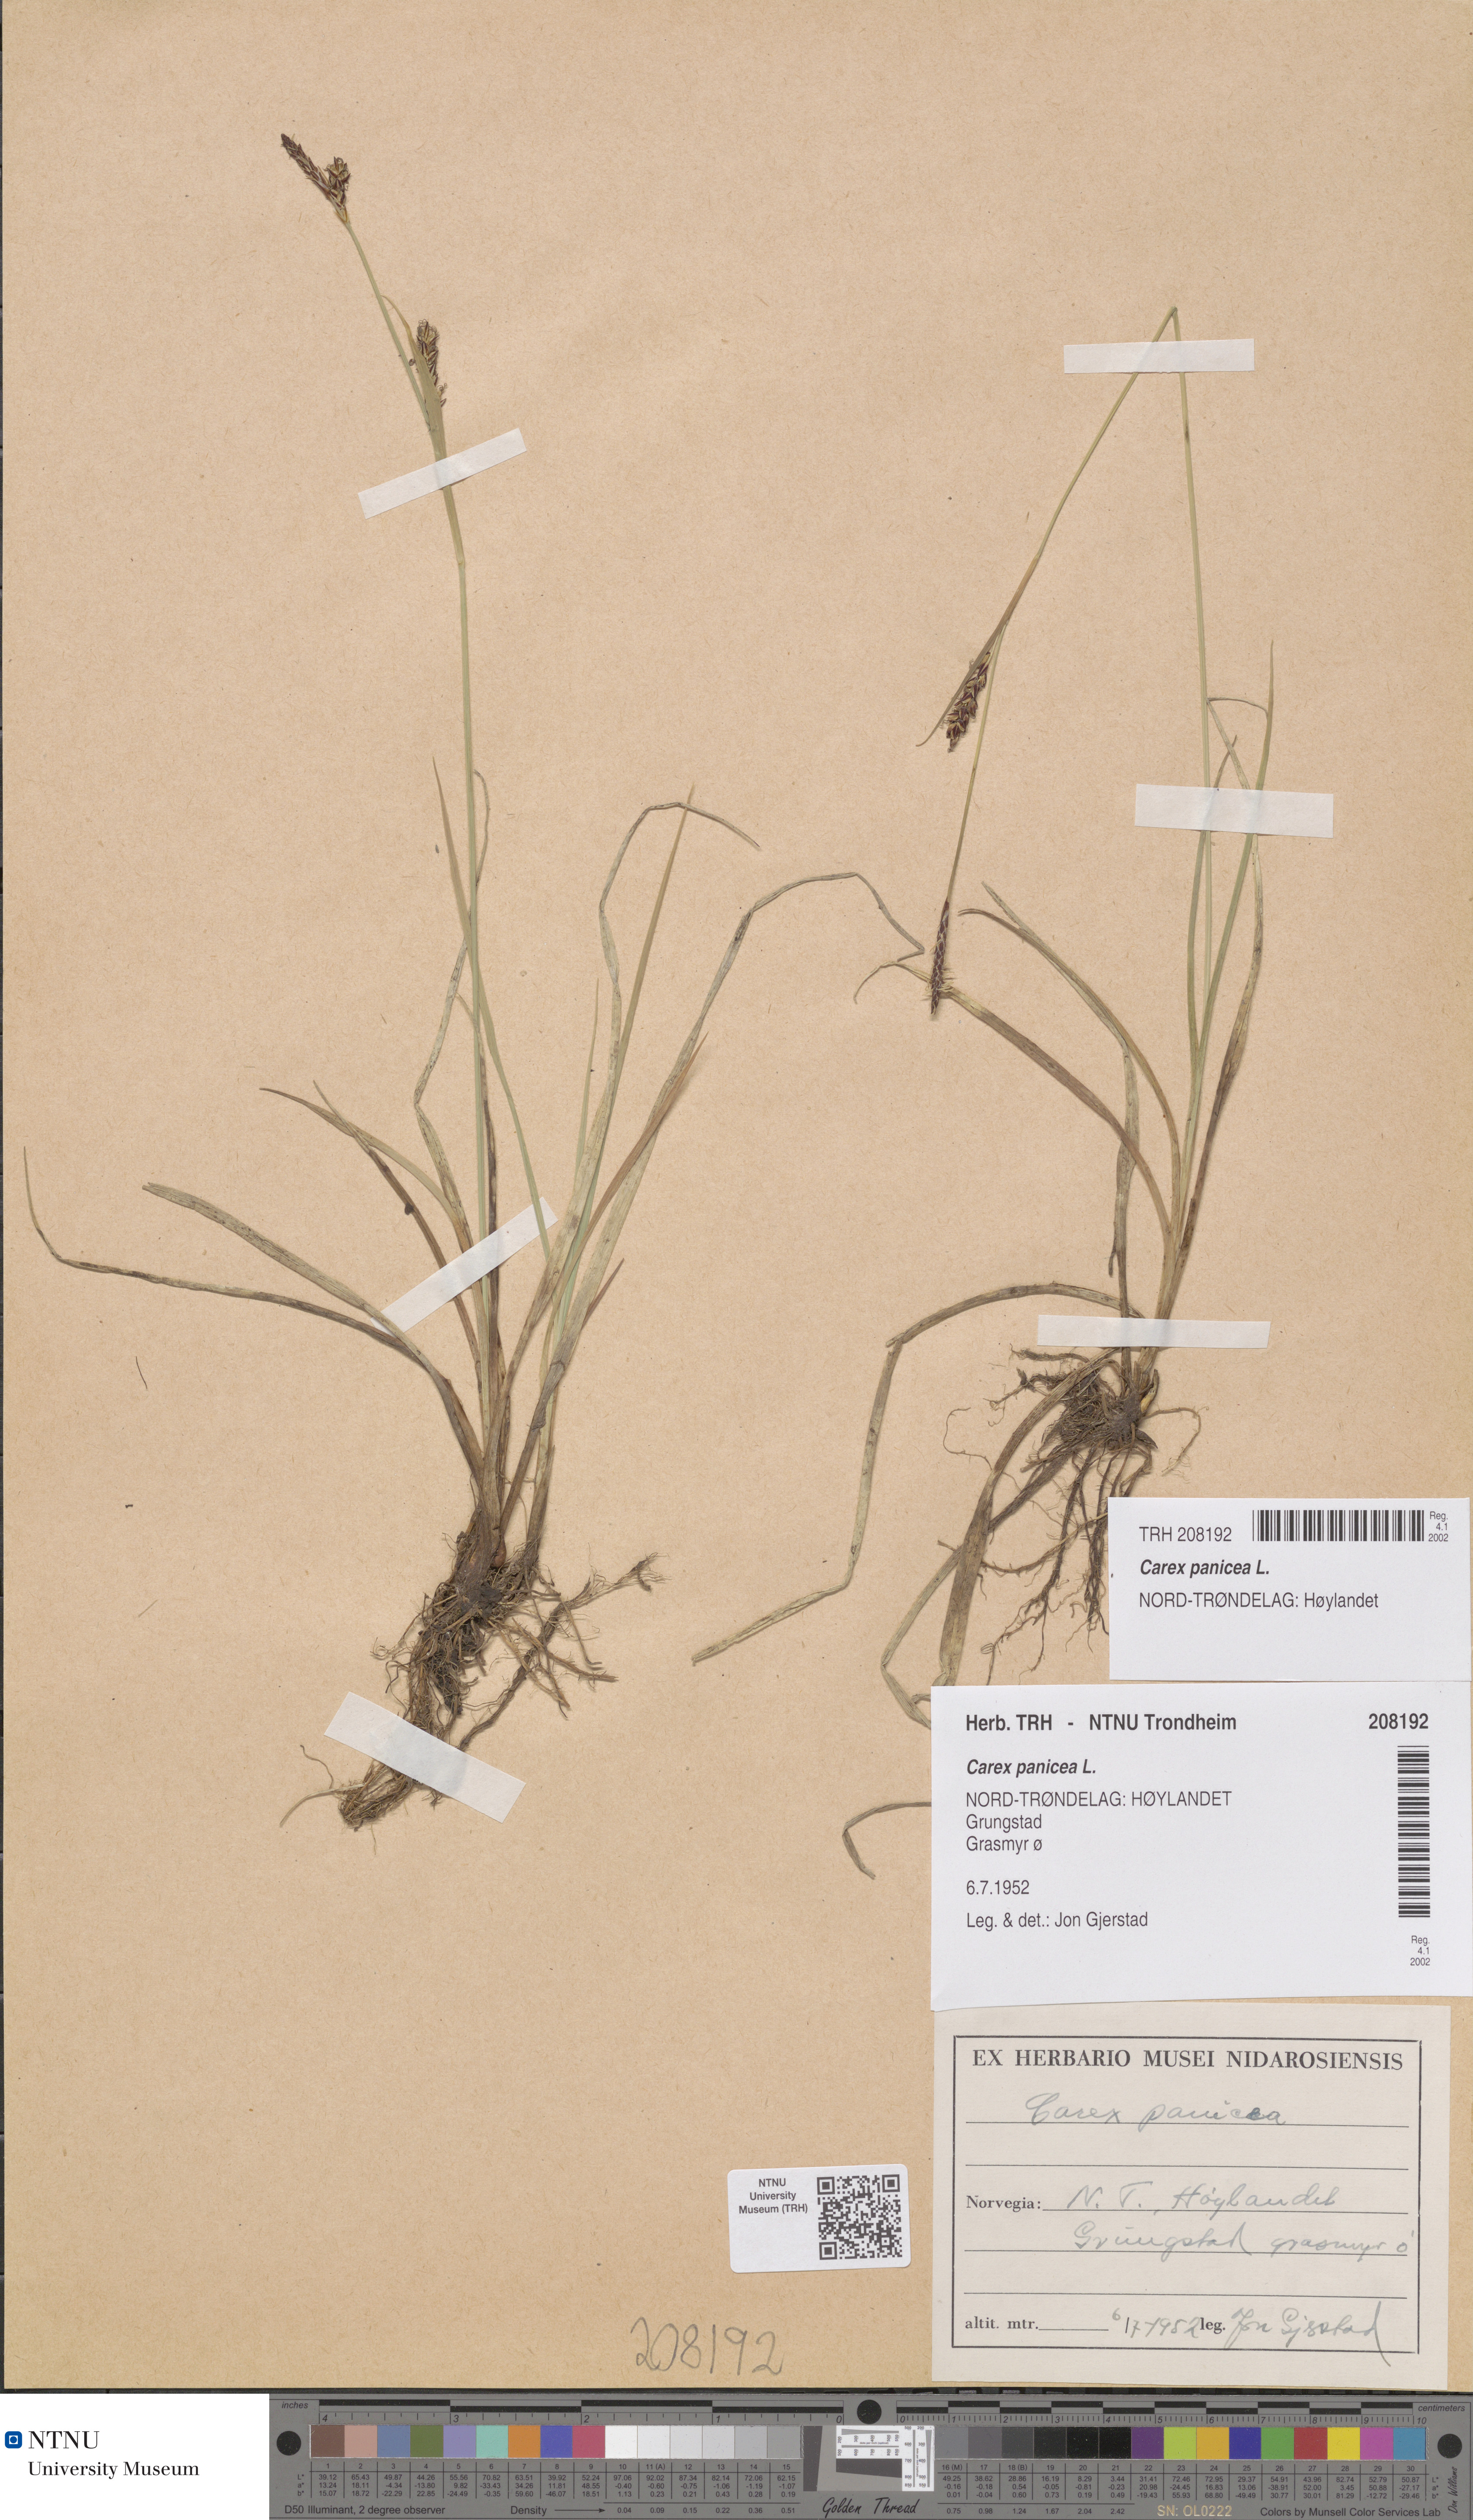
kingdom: Plantae
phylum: Tracheophyta
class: Liliopsida
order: Poales
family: Cyperaceae
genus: Carex
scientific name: Carex panicea
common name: Carnation sedge
